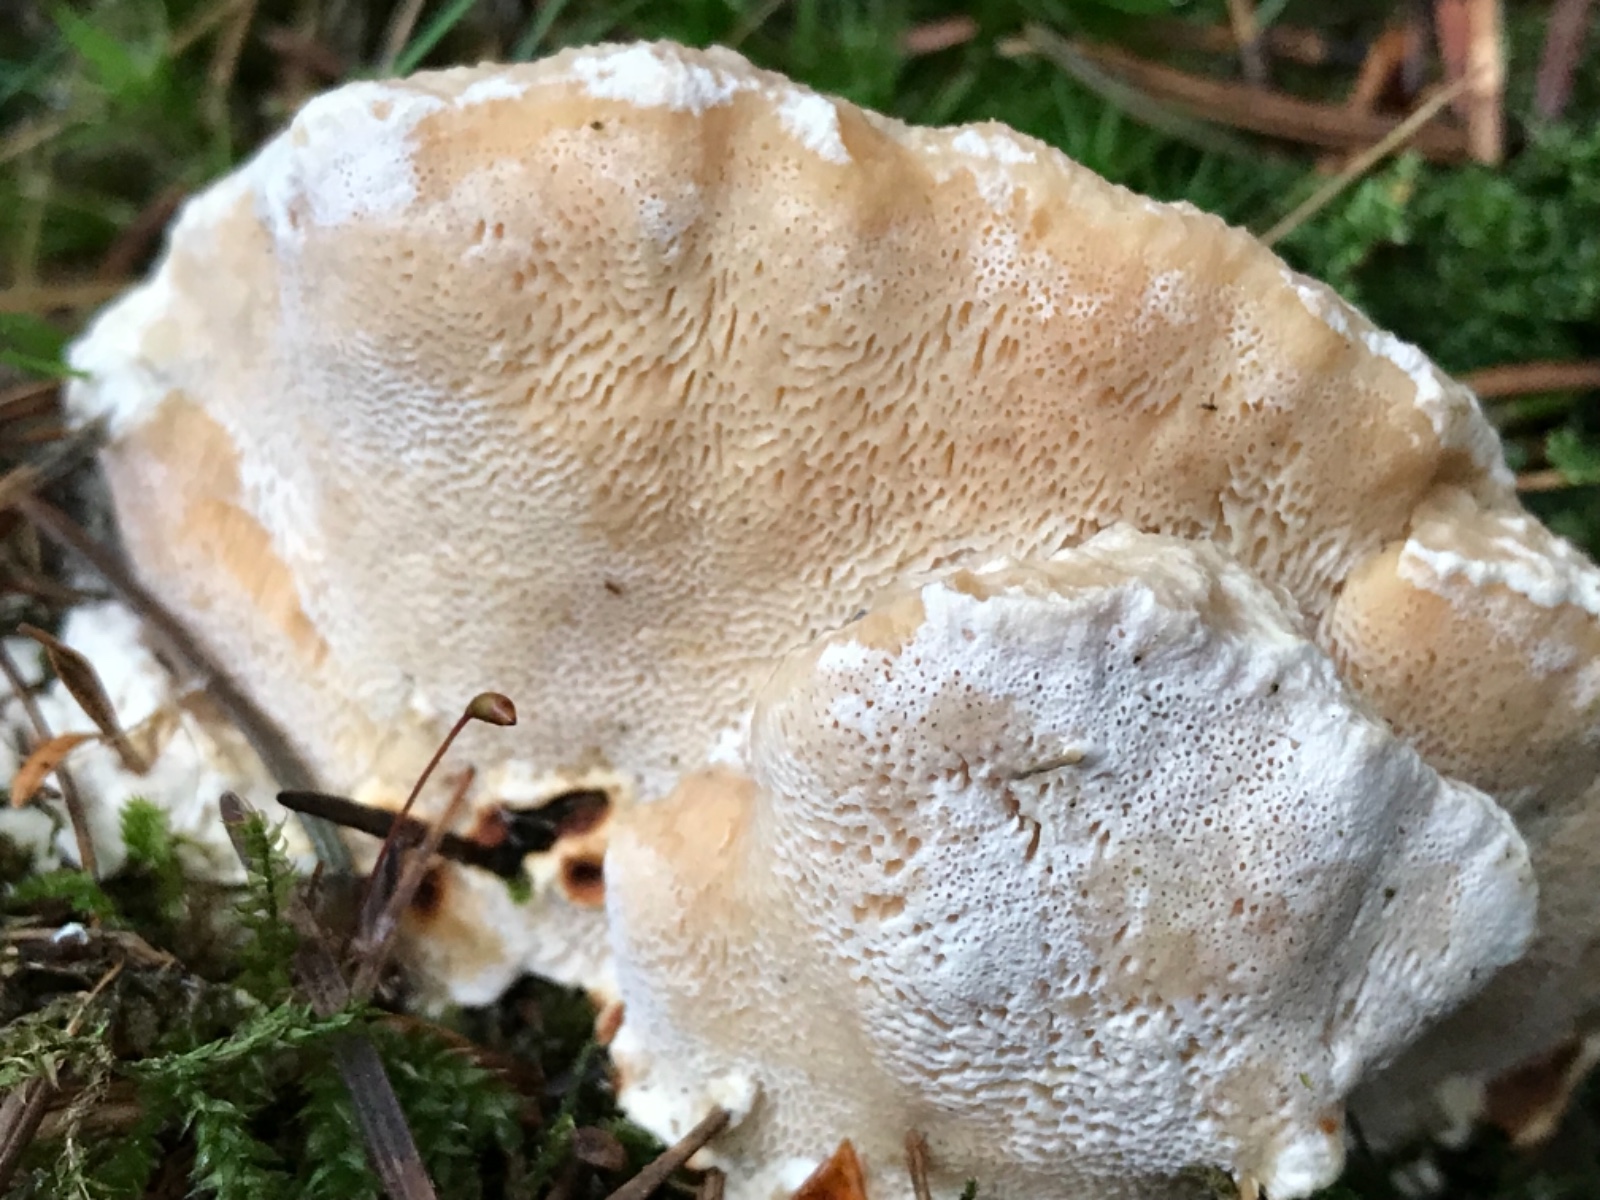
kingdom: Fungi
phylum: Basidiomycota
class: Agaricomycetes
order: Russulales
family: Bondarzewiaceae
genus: Heterobasidion
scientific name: Heterobasidion
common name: rodfordærver
